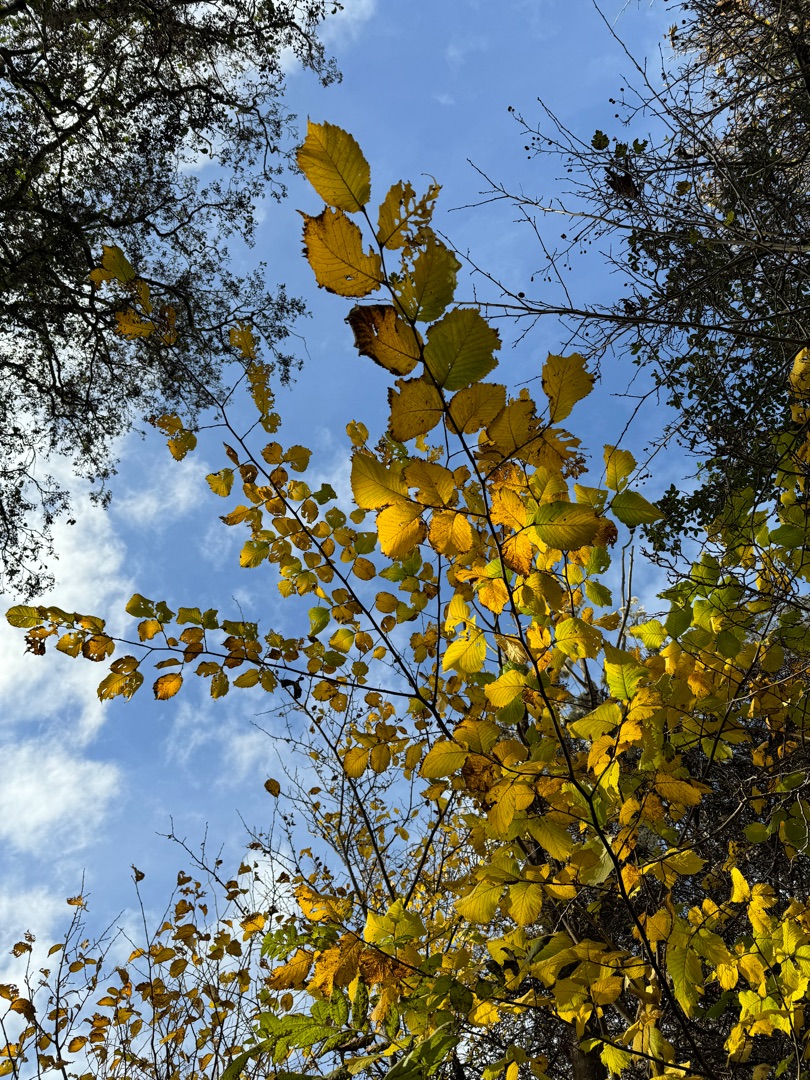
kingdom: Plantae
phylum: Tracheophyta
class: Magnoliopsida
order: Rosales
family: Ulmaceae
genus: Ulmus
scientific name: Ulmus glabra
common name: Skov-elm/storbladet elm
